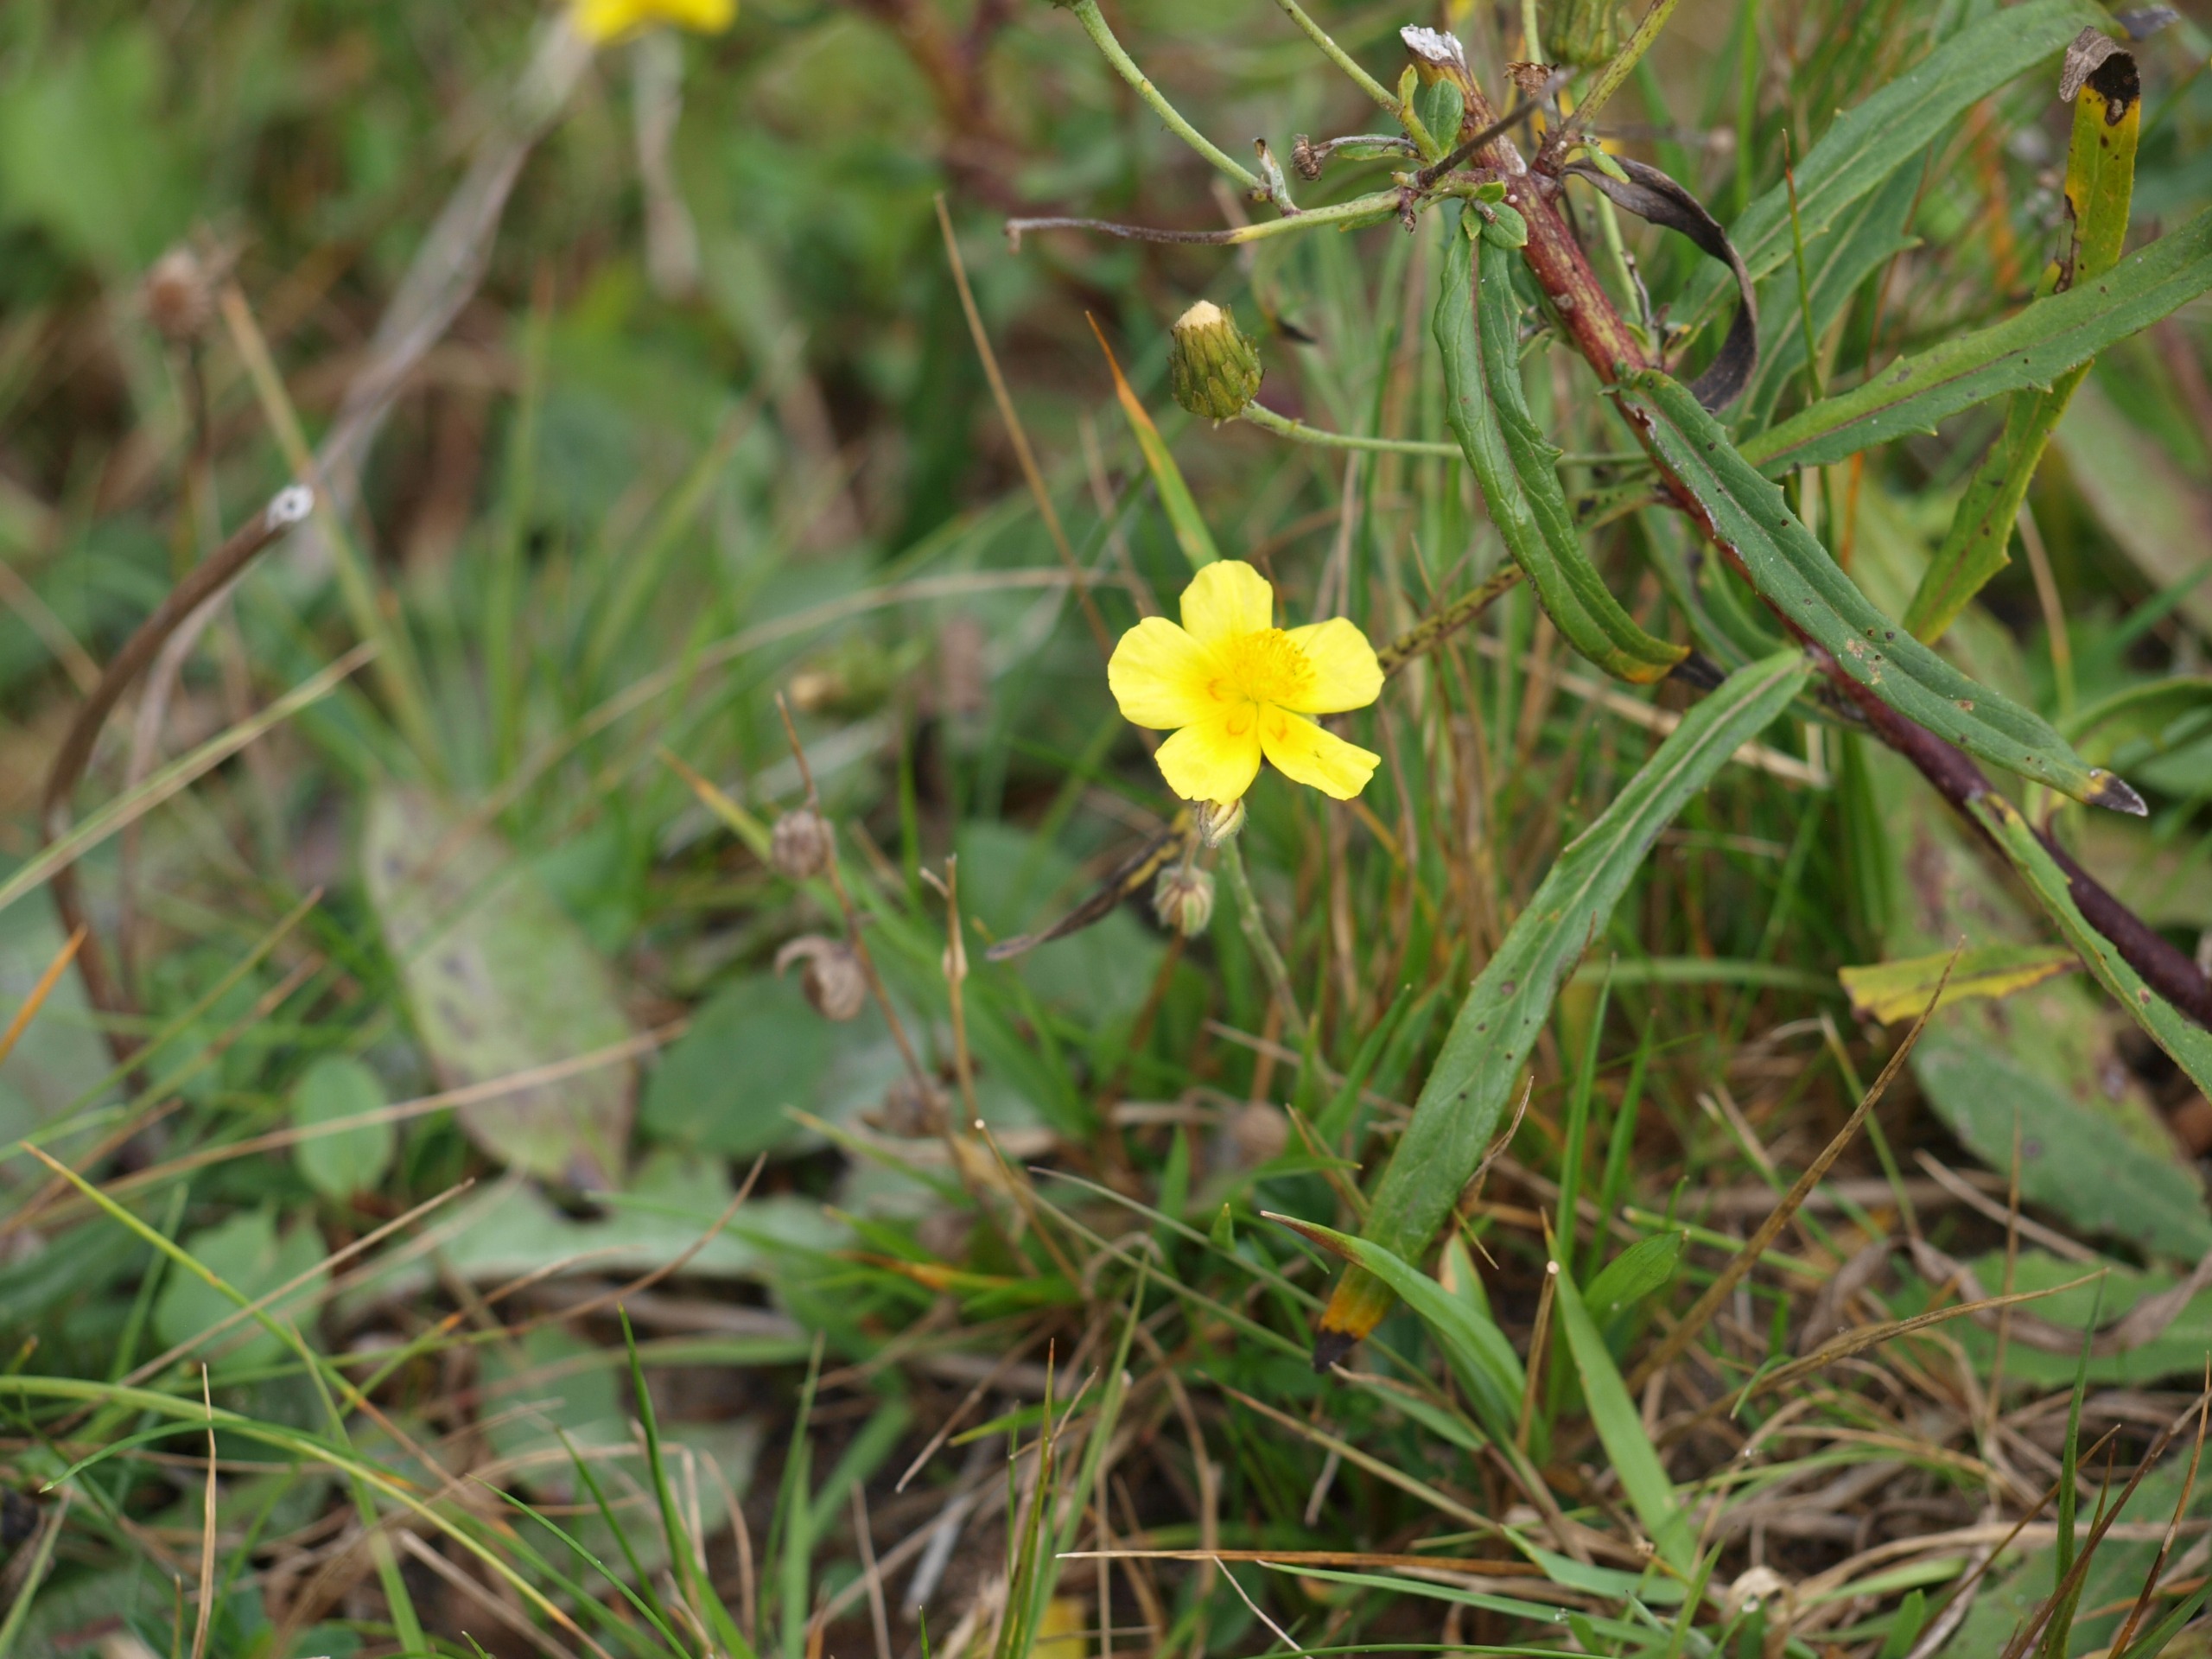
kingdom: Plantae
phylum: Tracheophyta
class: Magnoliopsida
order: Malvales
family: Cistaceae
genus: Helianthemum
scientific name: Helianthemum nummularium
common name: Bakke-soløje
